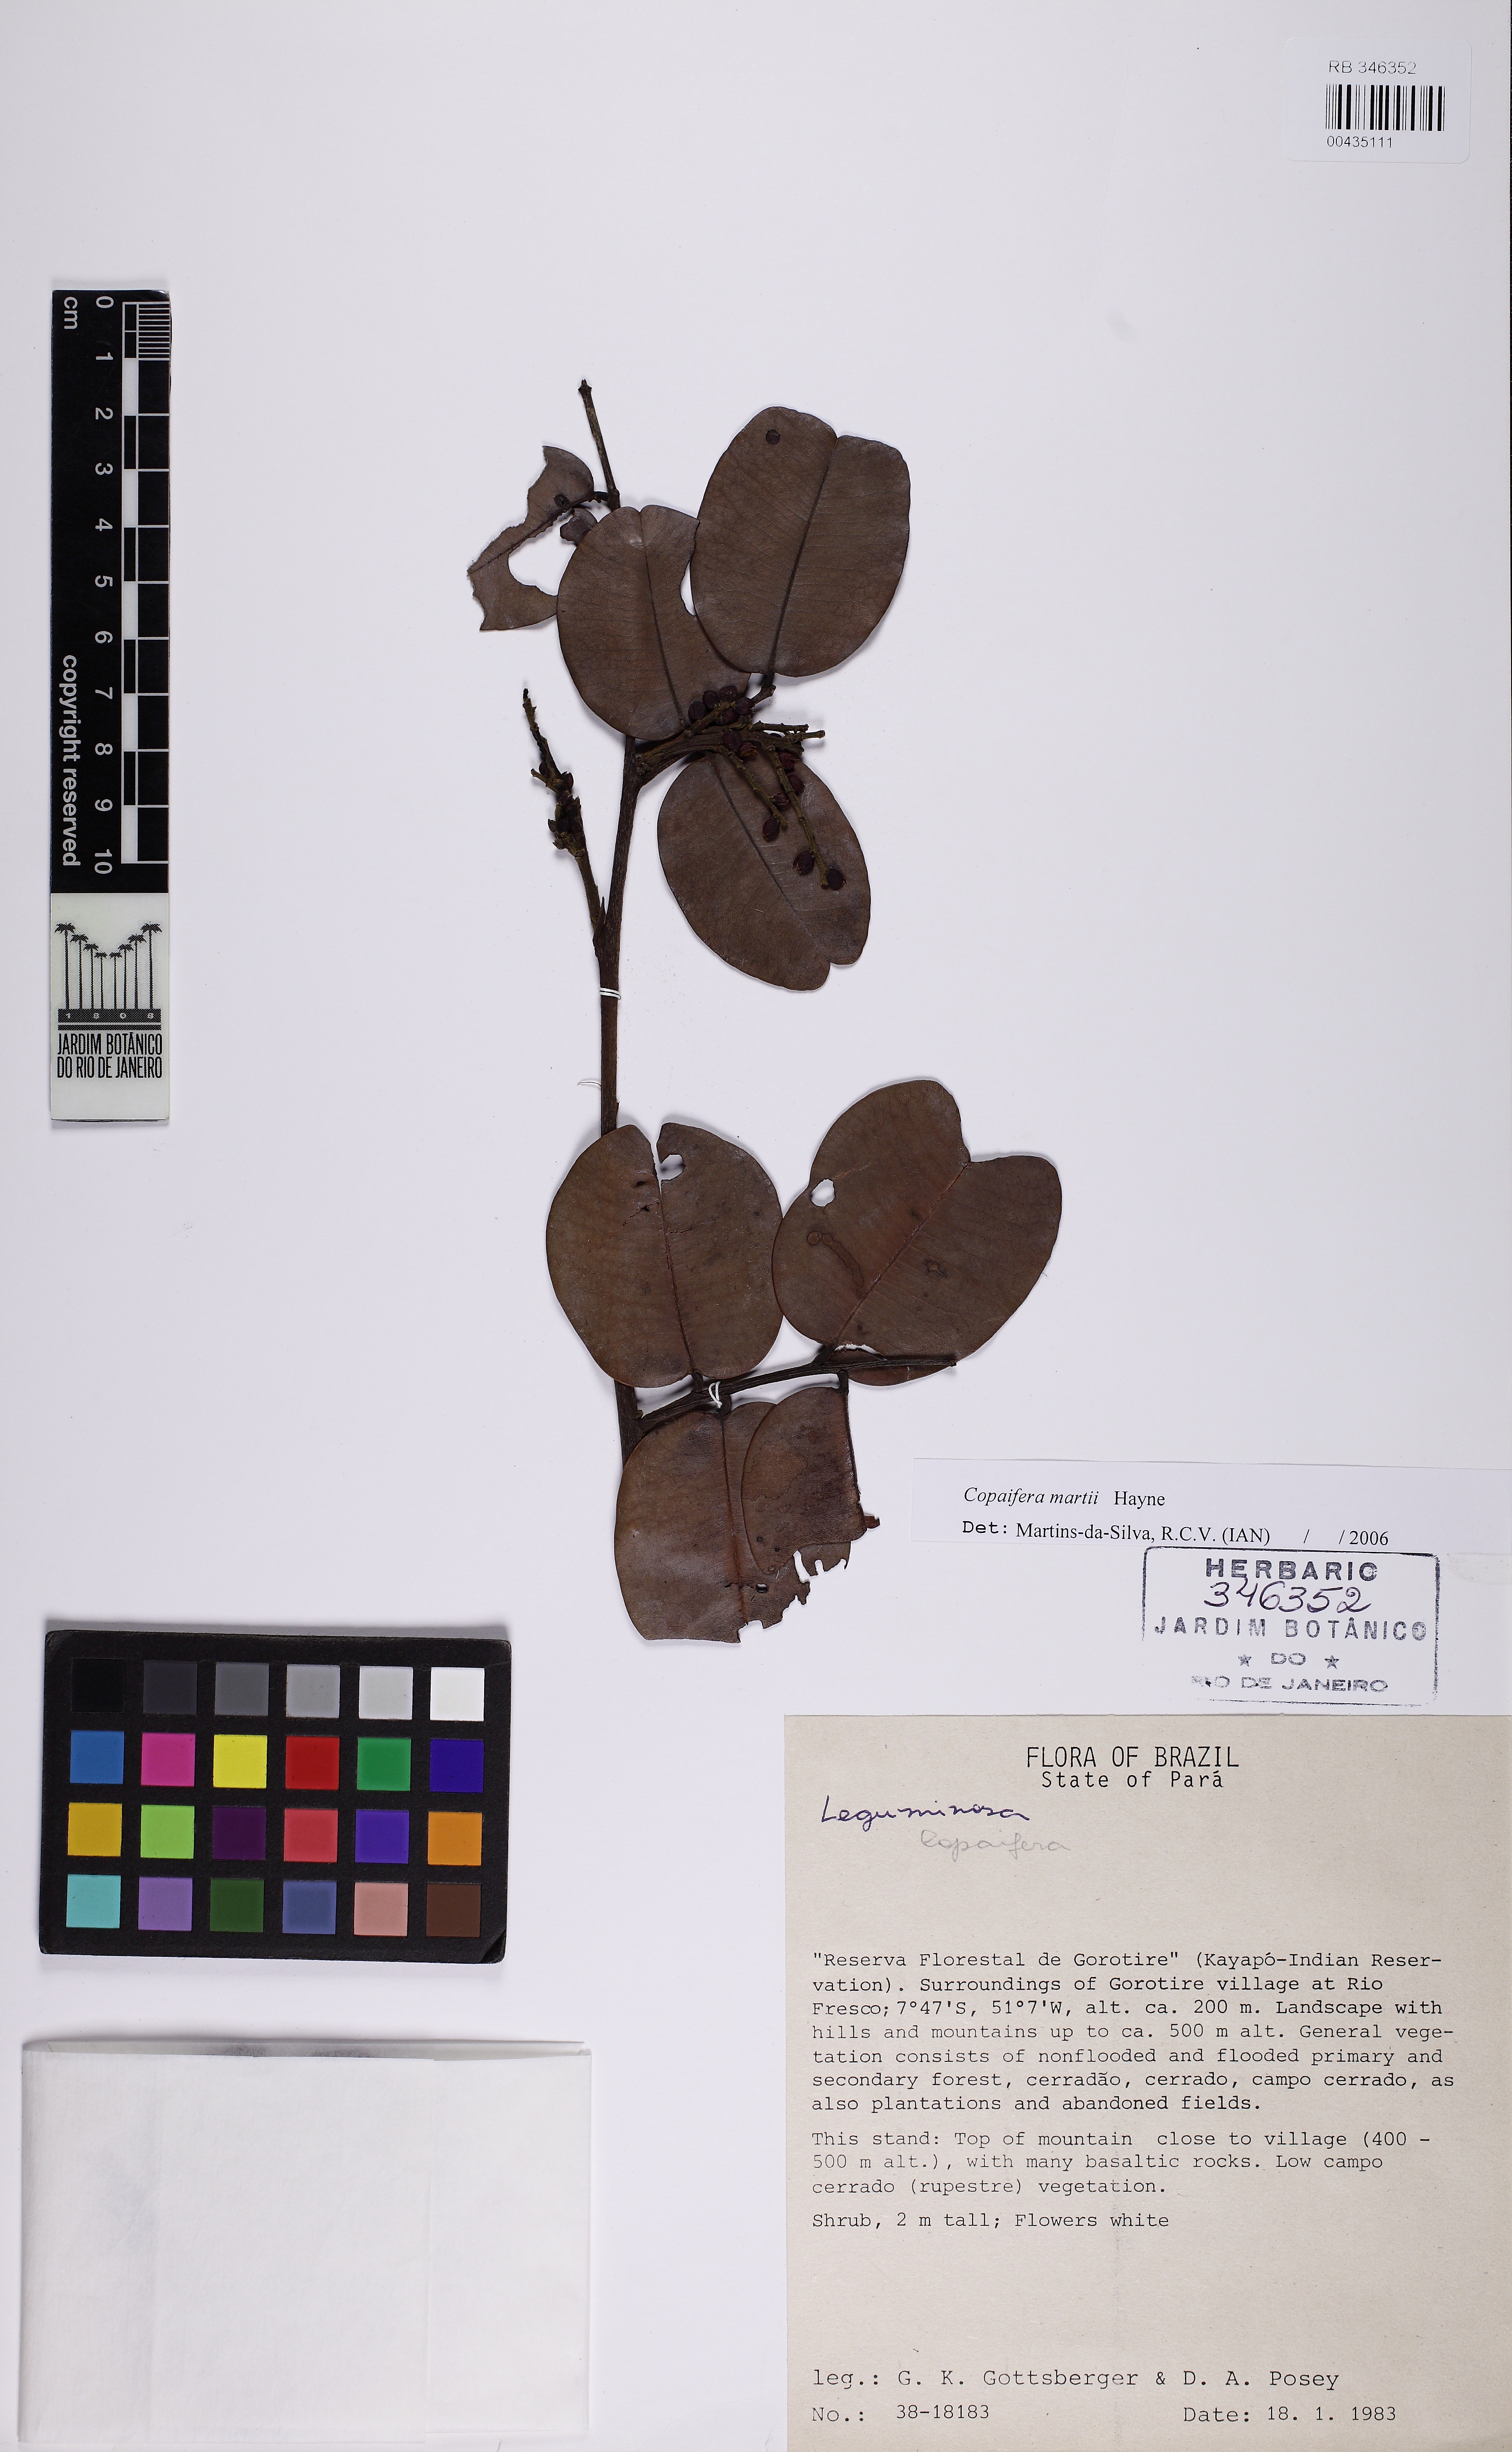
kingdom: Plantae
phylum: Tracheophyta
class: Magnoliopsida
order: Fabales
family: Fabaceae
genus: Copaifera
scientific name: Copaifera martii
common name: Copaiba
